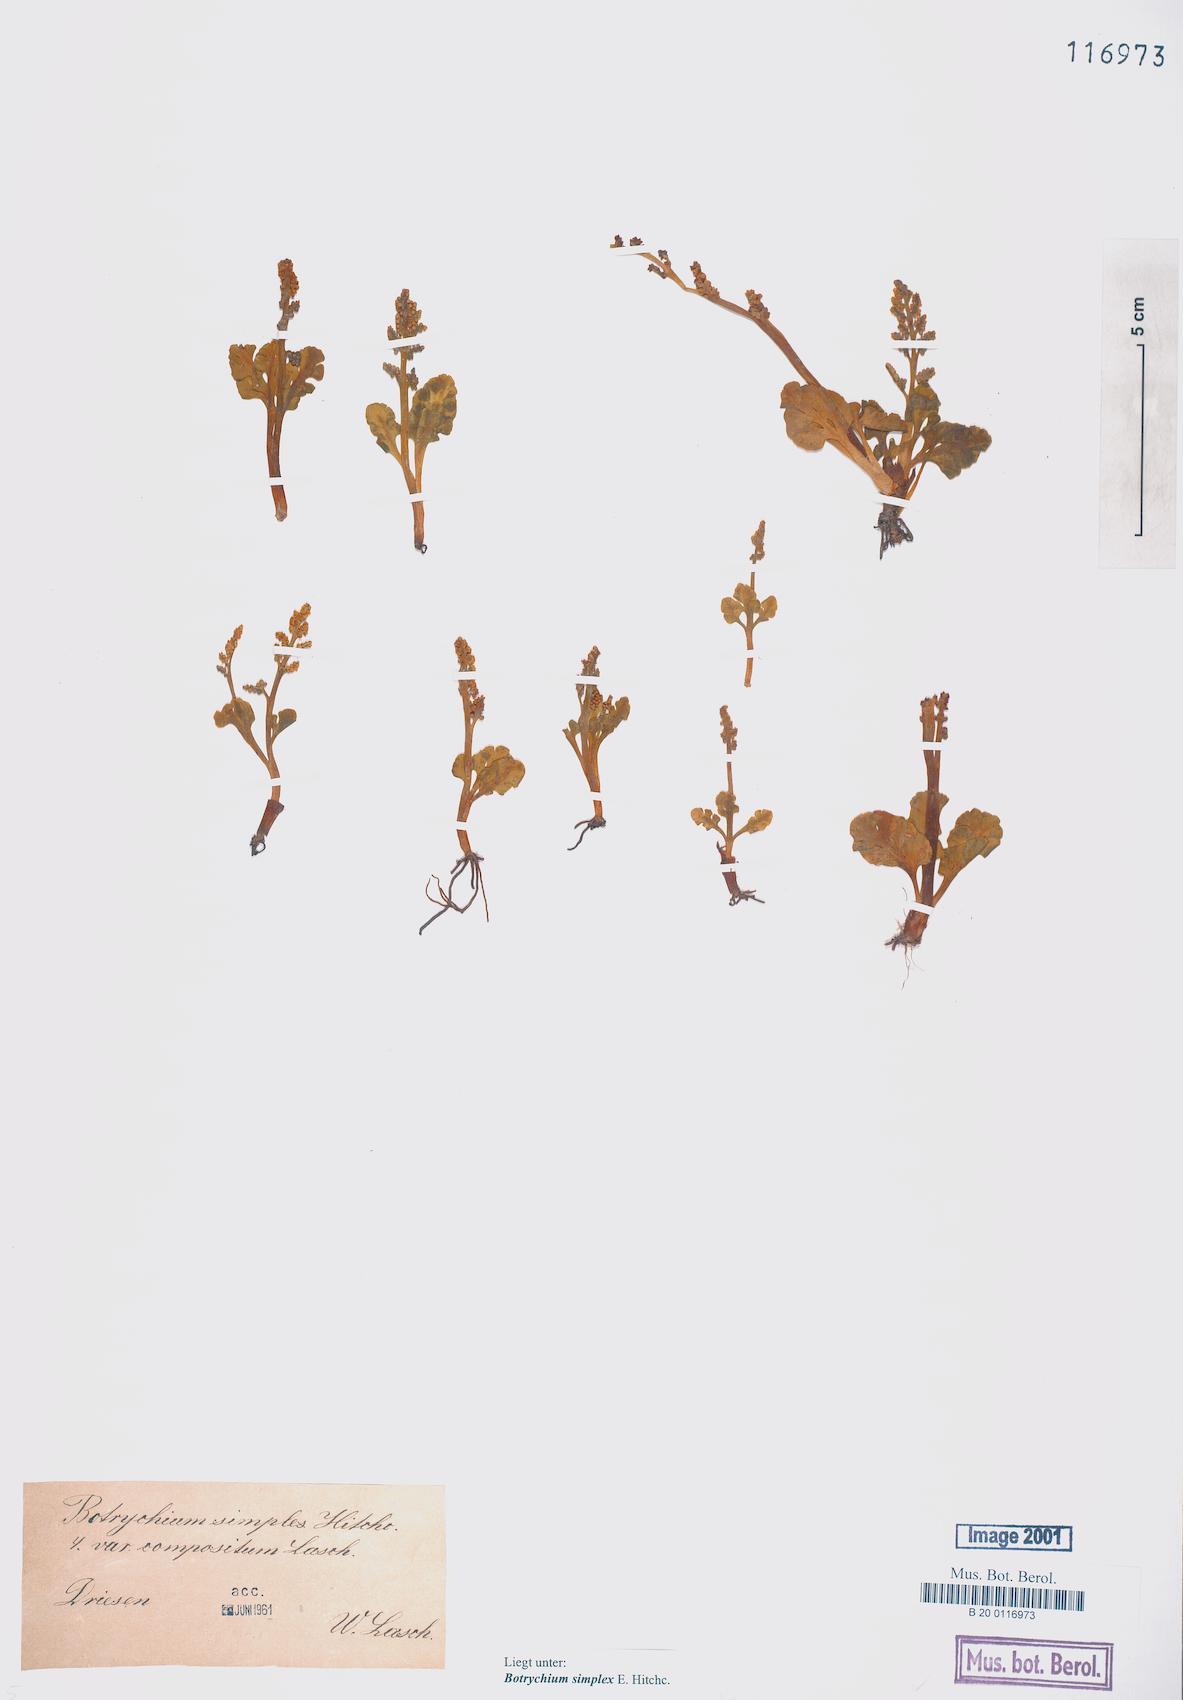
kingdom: Plantae
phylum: Tracheophyta
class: Polypodiopsida
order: Ophioglossales
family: Ophioglossaceae
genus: Botrychium
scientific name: Botrychium simplex
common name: Least moonwort
